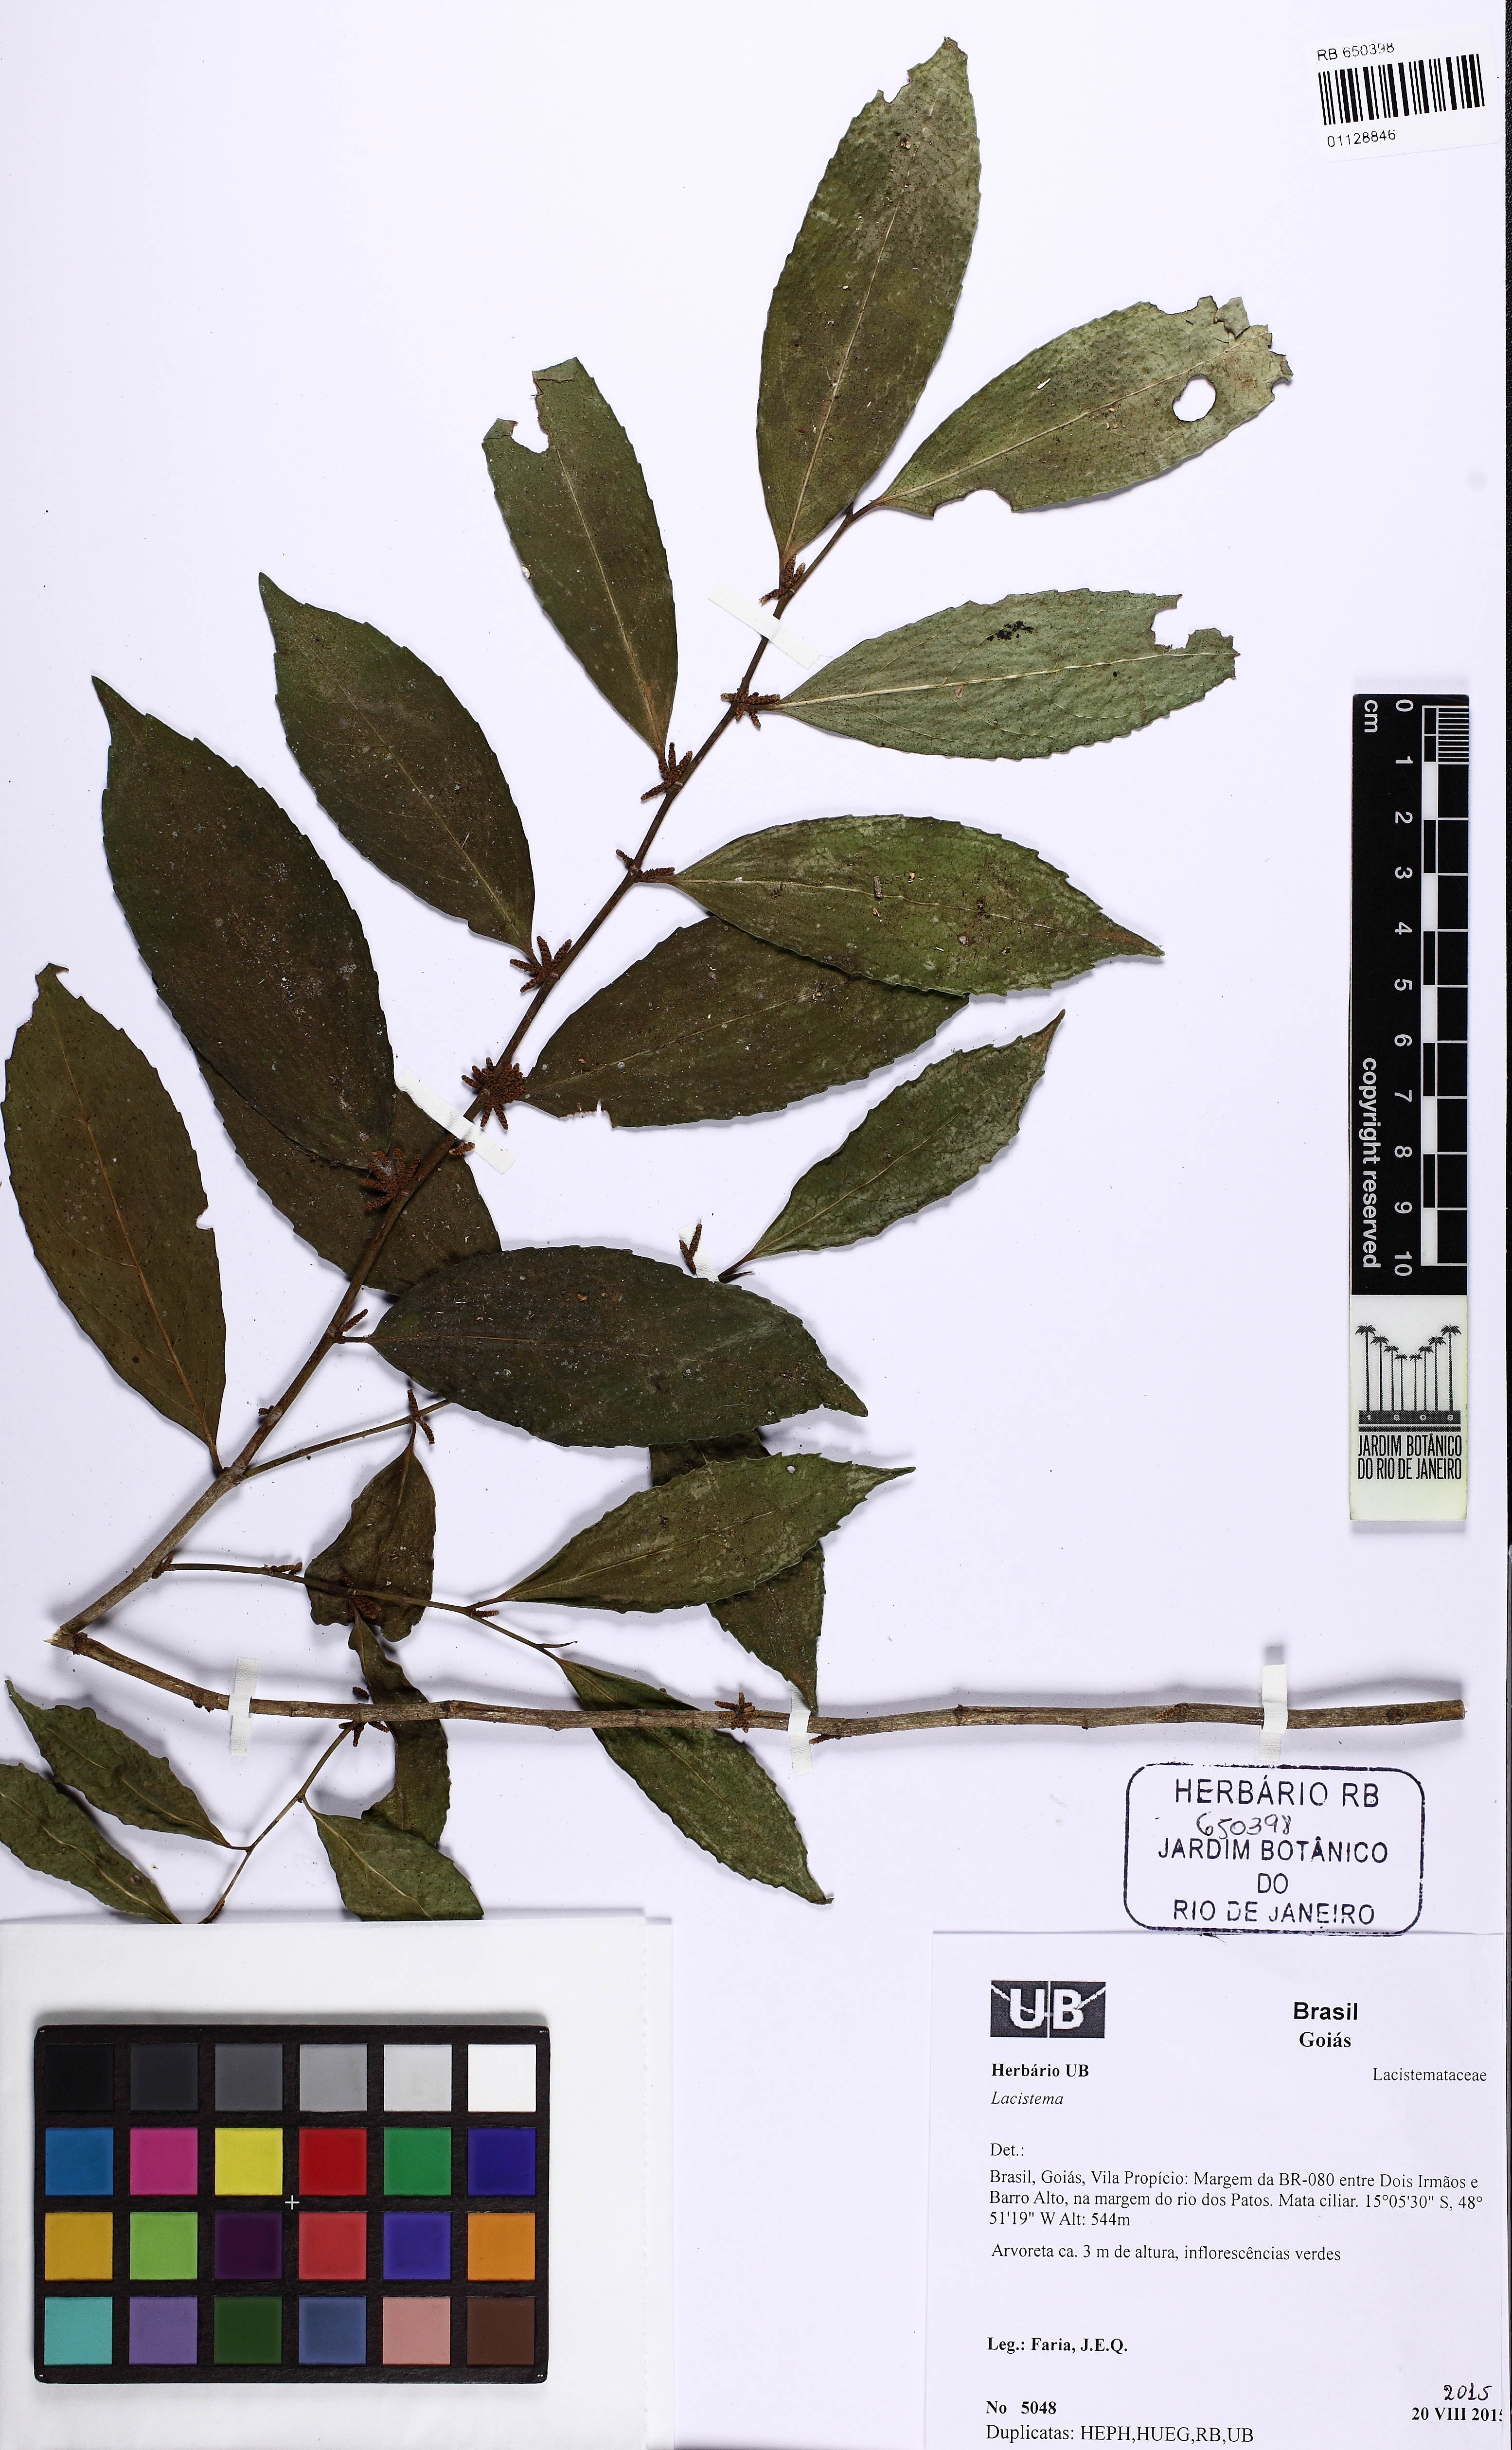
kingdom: Plantae
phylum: Tracheophyta
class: Magnoliopsida
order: Malpighiales
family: Lacistemataceae
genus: Lacistema
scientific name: Lacistema
